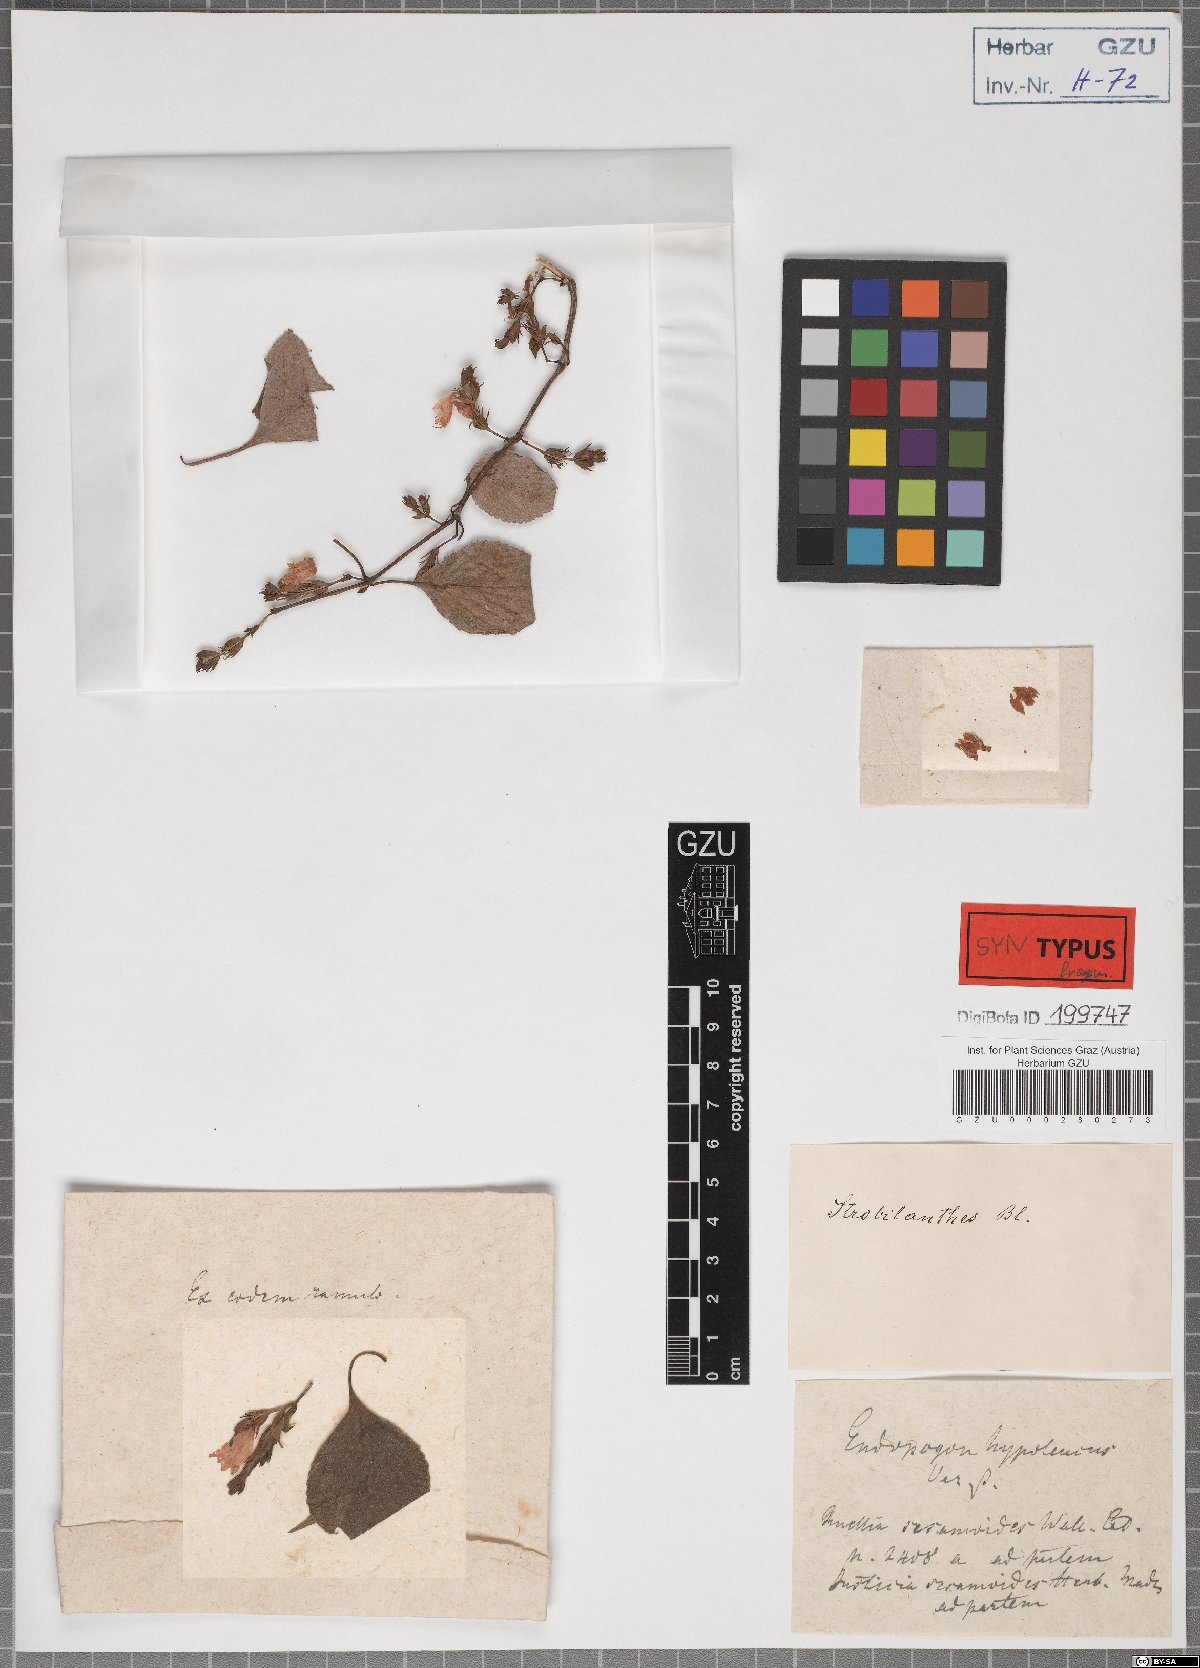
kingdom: Plantae
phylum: Tracheophyta
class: Magnoliopsida
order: Lamiales
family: Acanthaceae
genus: Strobilanthes
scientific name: Strobilanthes consanguinea
